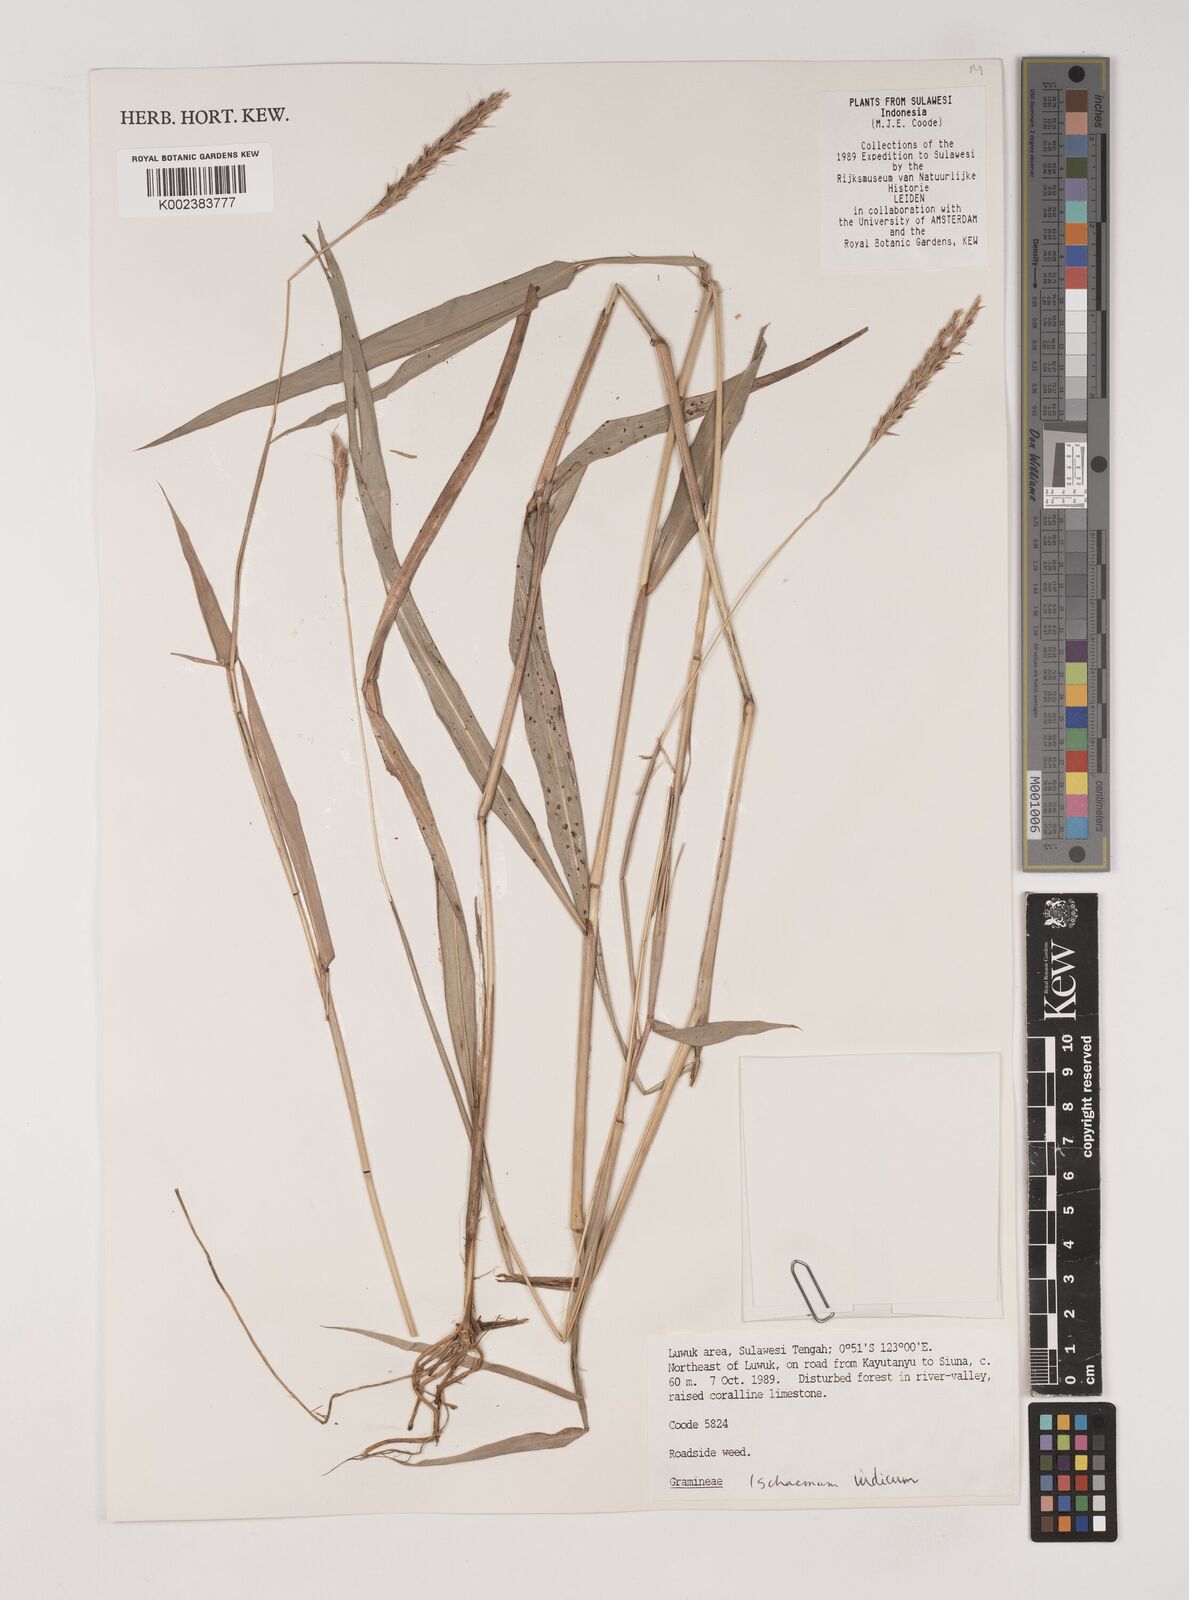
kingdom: Plantae
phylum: Tracheophyta
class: Liliopsida
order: Poales
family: Poaceae
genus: Polytrias
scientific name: Polytrias indica
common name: Indian murainagrass
